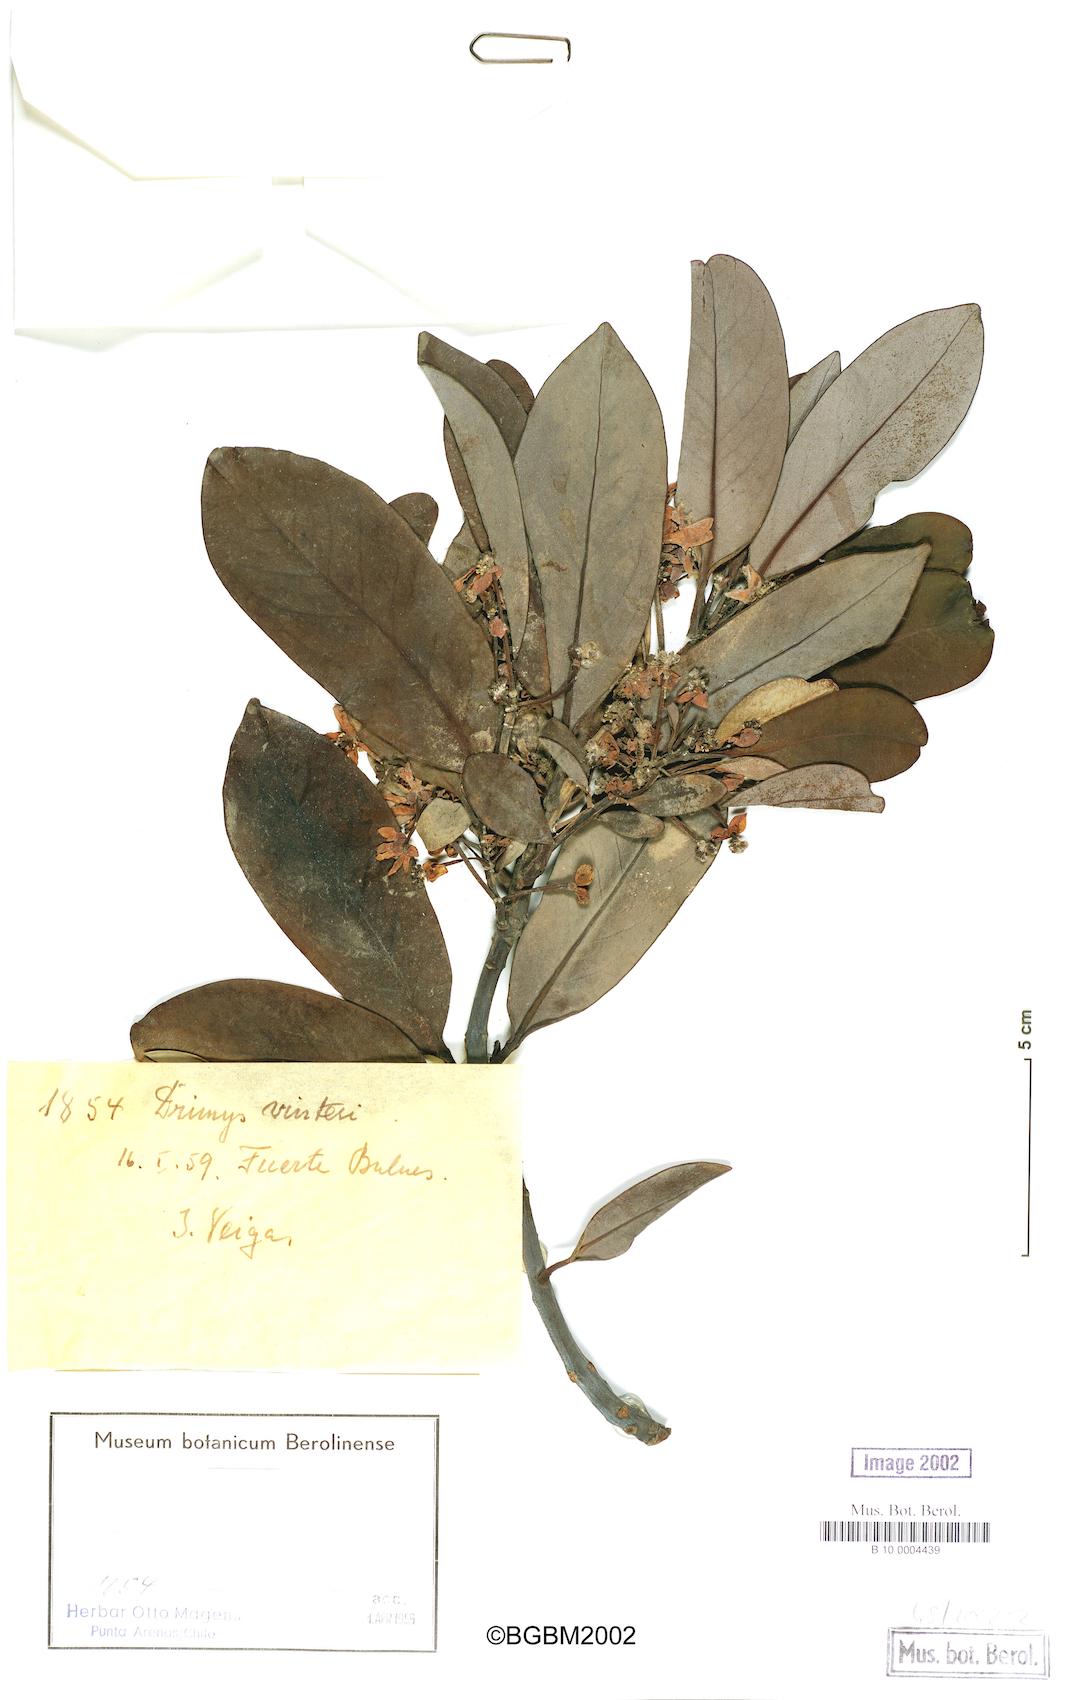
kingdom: Plantae
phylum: Tracheophyta
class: Magnoliopsida
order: Canellales
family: Winteraceae
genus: Drimys
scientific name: Drimys winteri
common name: Winter's-bark
